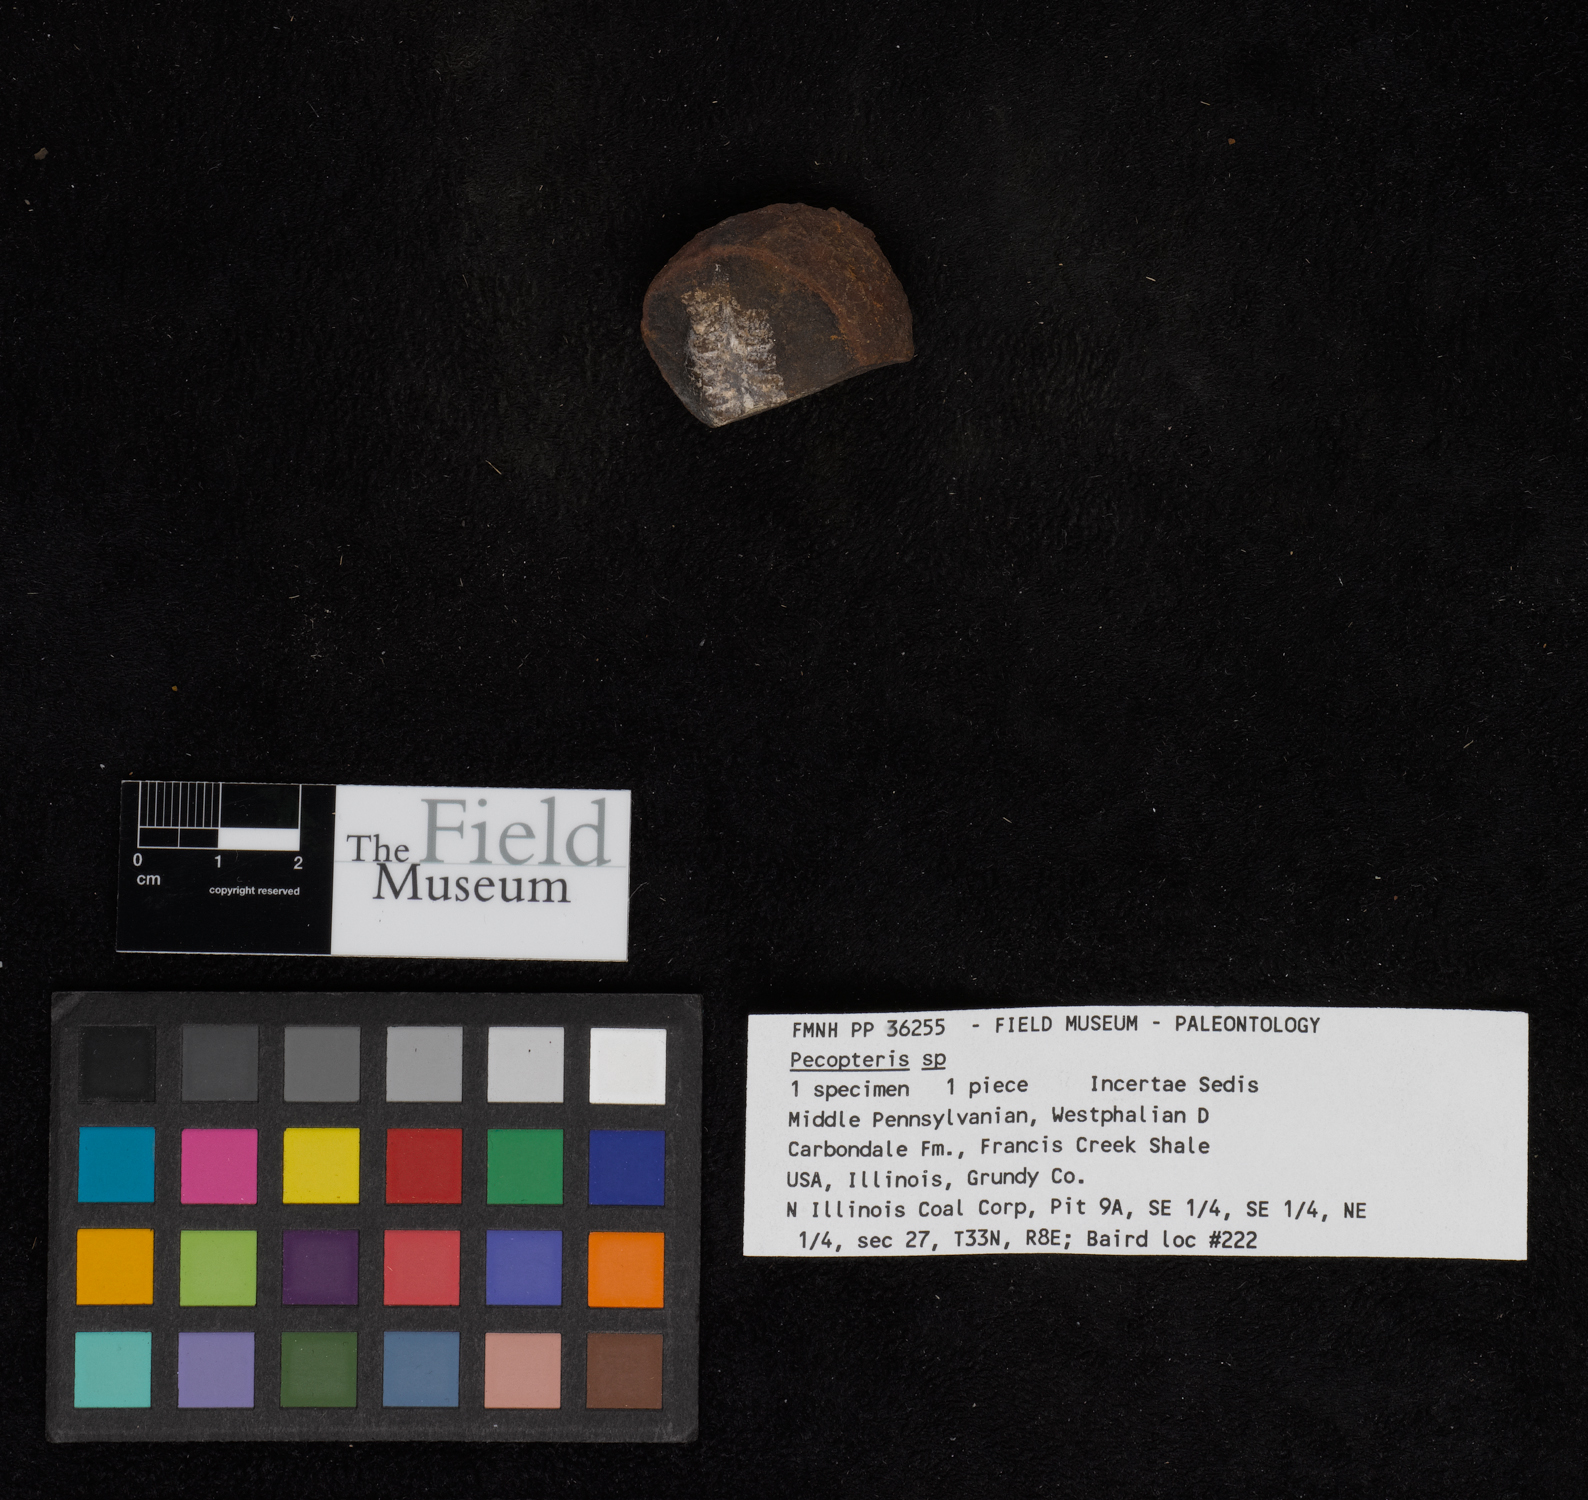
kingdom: Plantae
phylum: Tracheophyta
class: Polypodiopsida
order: Marattiales
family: Asterothecaceae
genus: Pecopteris
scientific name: Pecopteris
